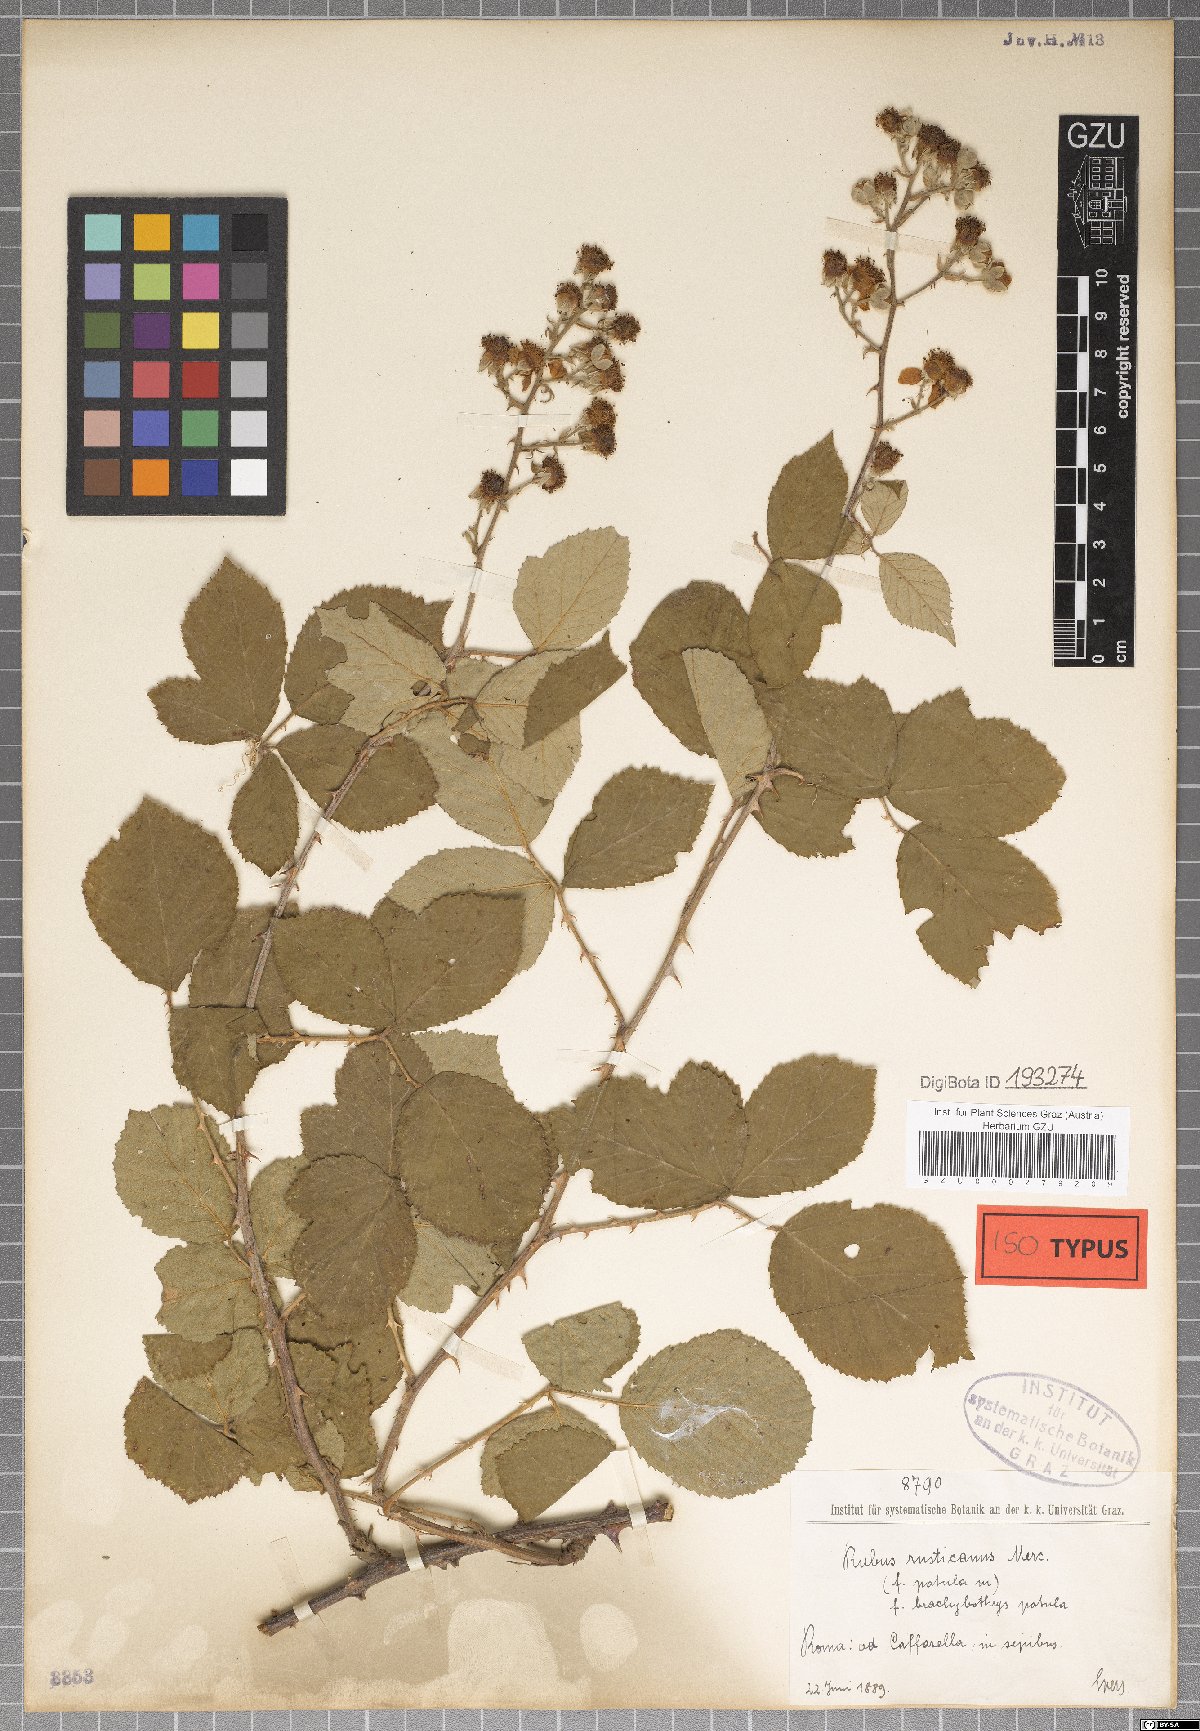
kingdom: Plantae
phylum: Tracheophyta
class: Magnoliopsida
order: Rosales
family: Rosaceae
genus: Rubus
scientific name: Rubus ulmifolius
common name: Elmleaf blackberry
